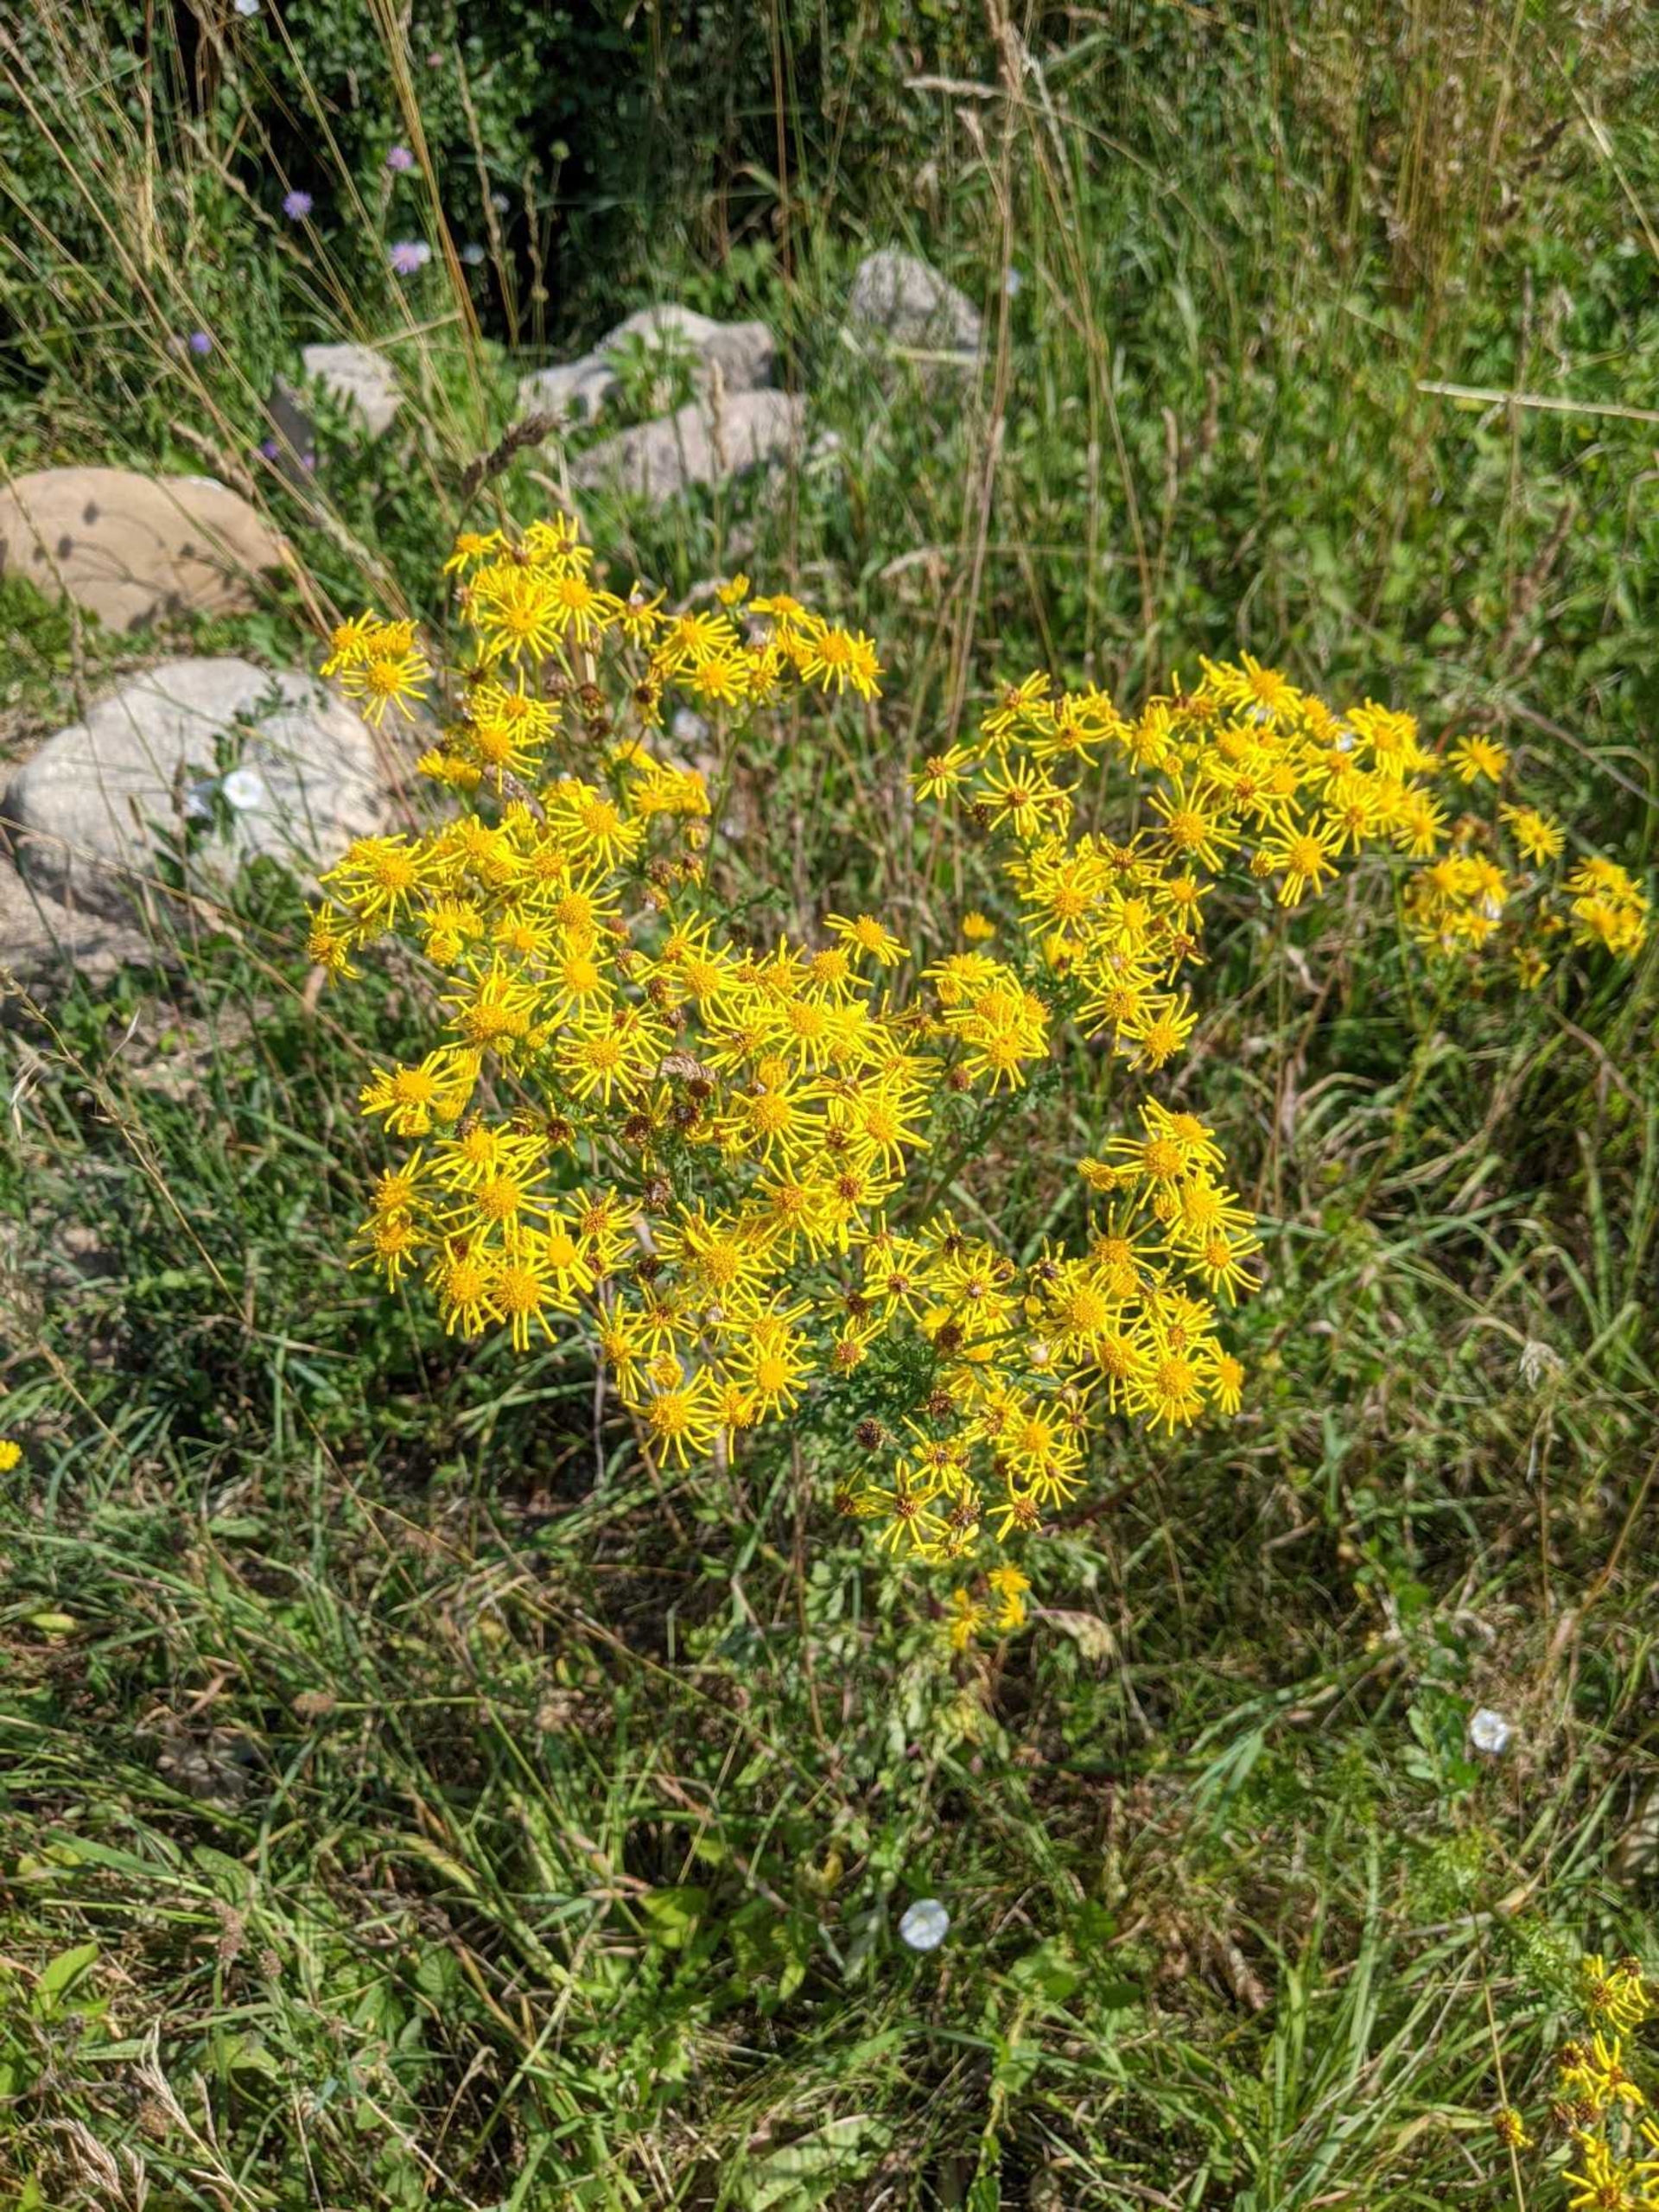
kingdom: Plantae
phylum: Tracheophyta
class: Magnoliopsida
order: Asterales
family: Asteraceae
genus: Jacobaea
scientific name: Jacobaea vulgaris
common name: Eng-brandbæger
